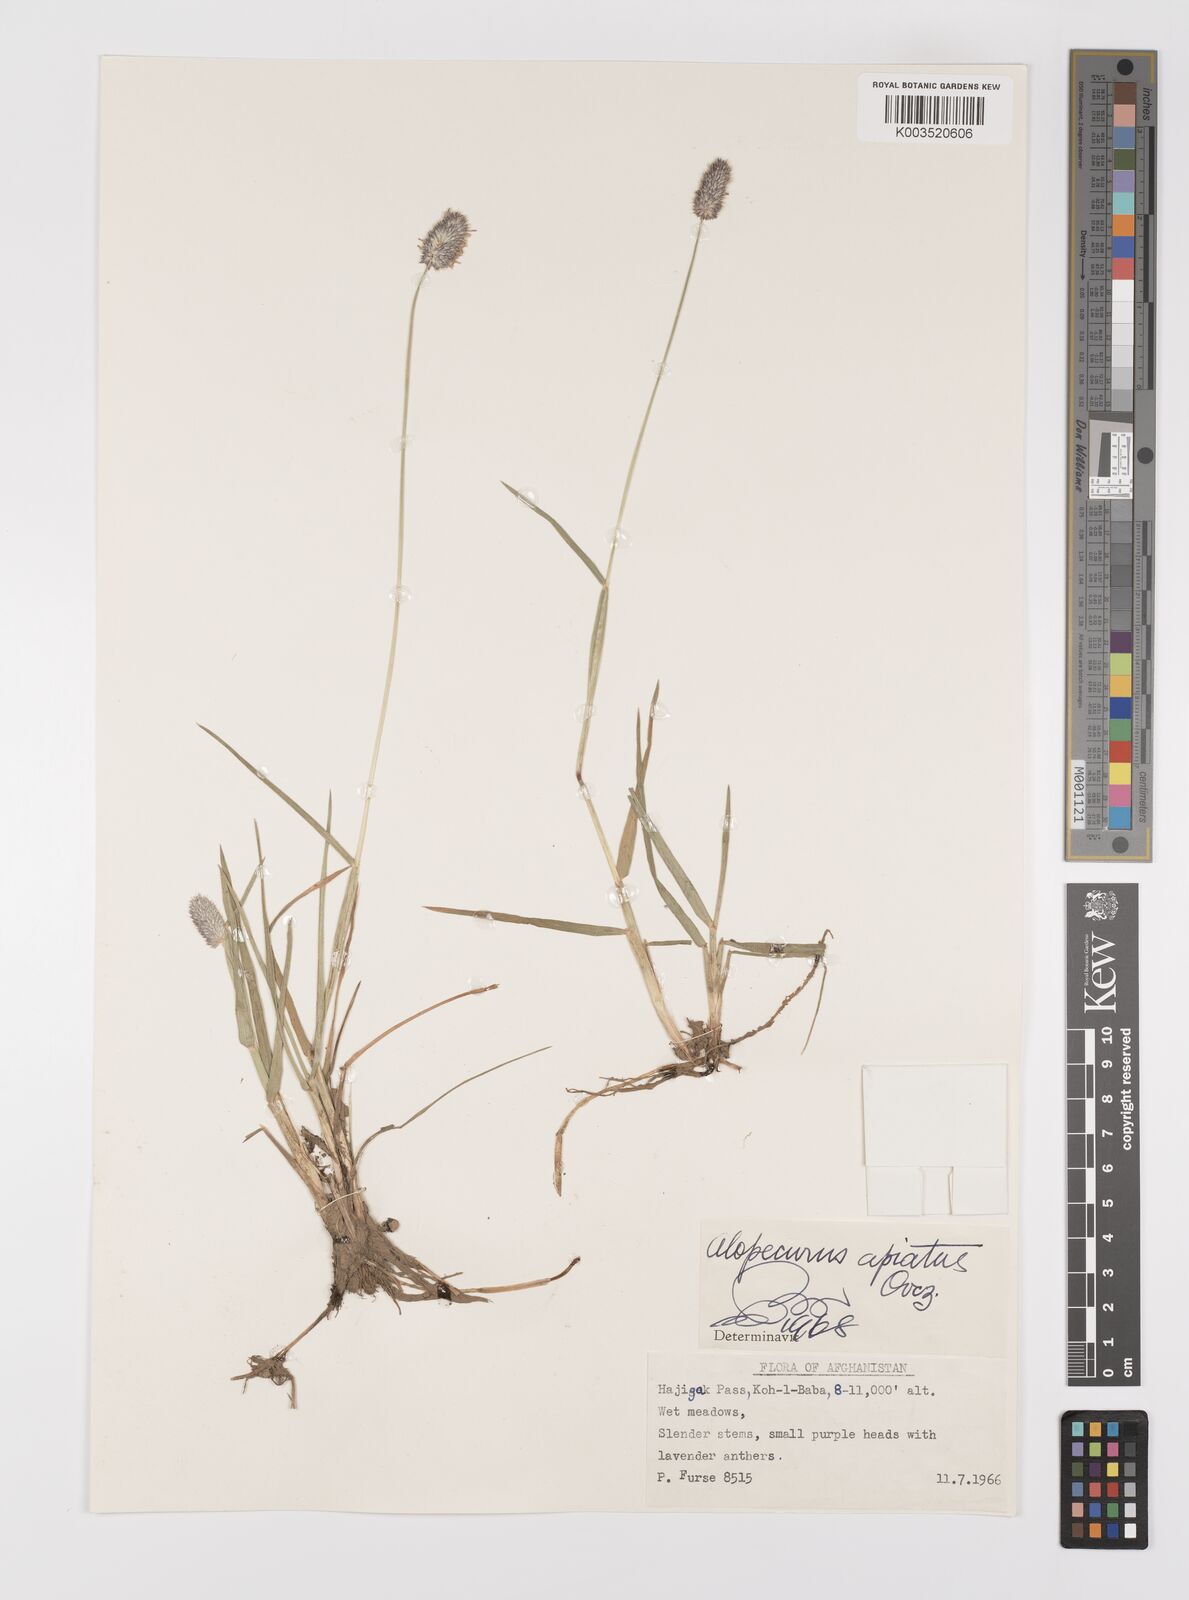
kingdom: Plantae
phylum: Tracheophyta
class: Liliopsida
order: Poales
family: Poaceae
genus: Alopecurus
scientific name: Alopecurus apiatus
